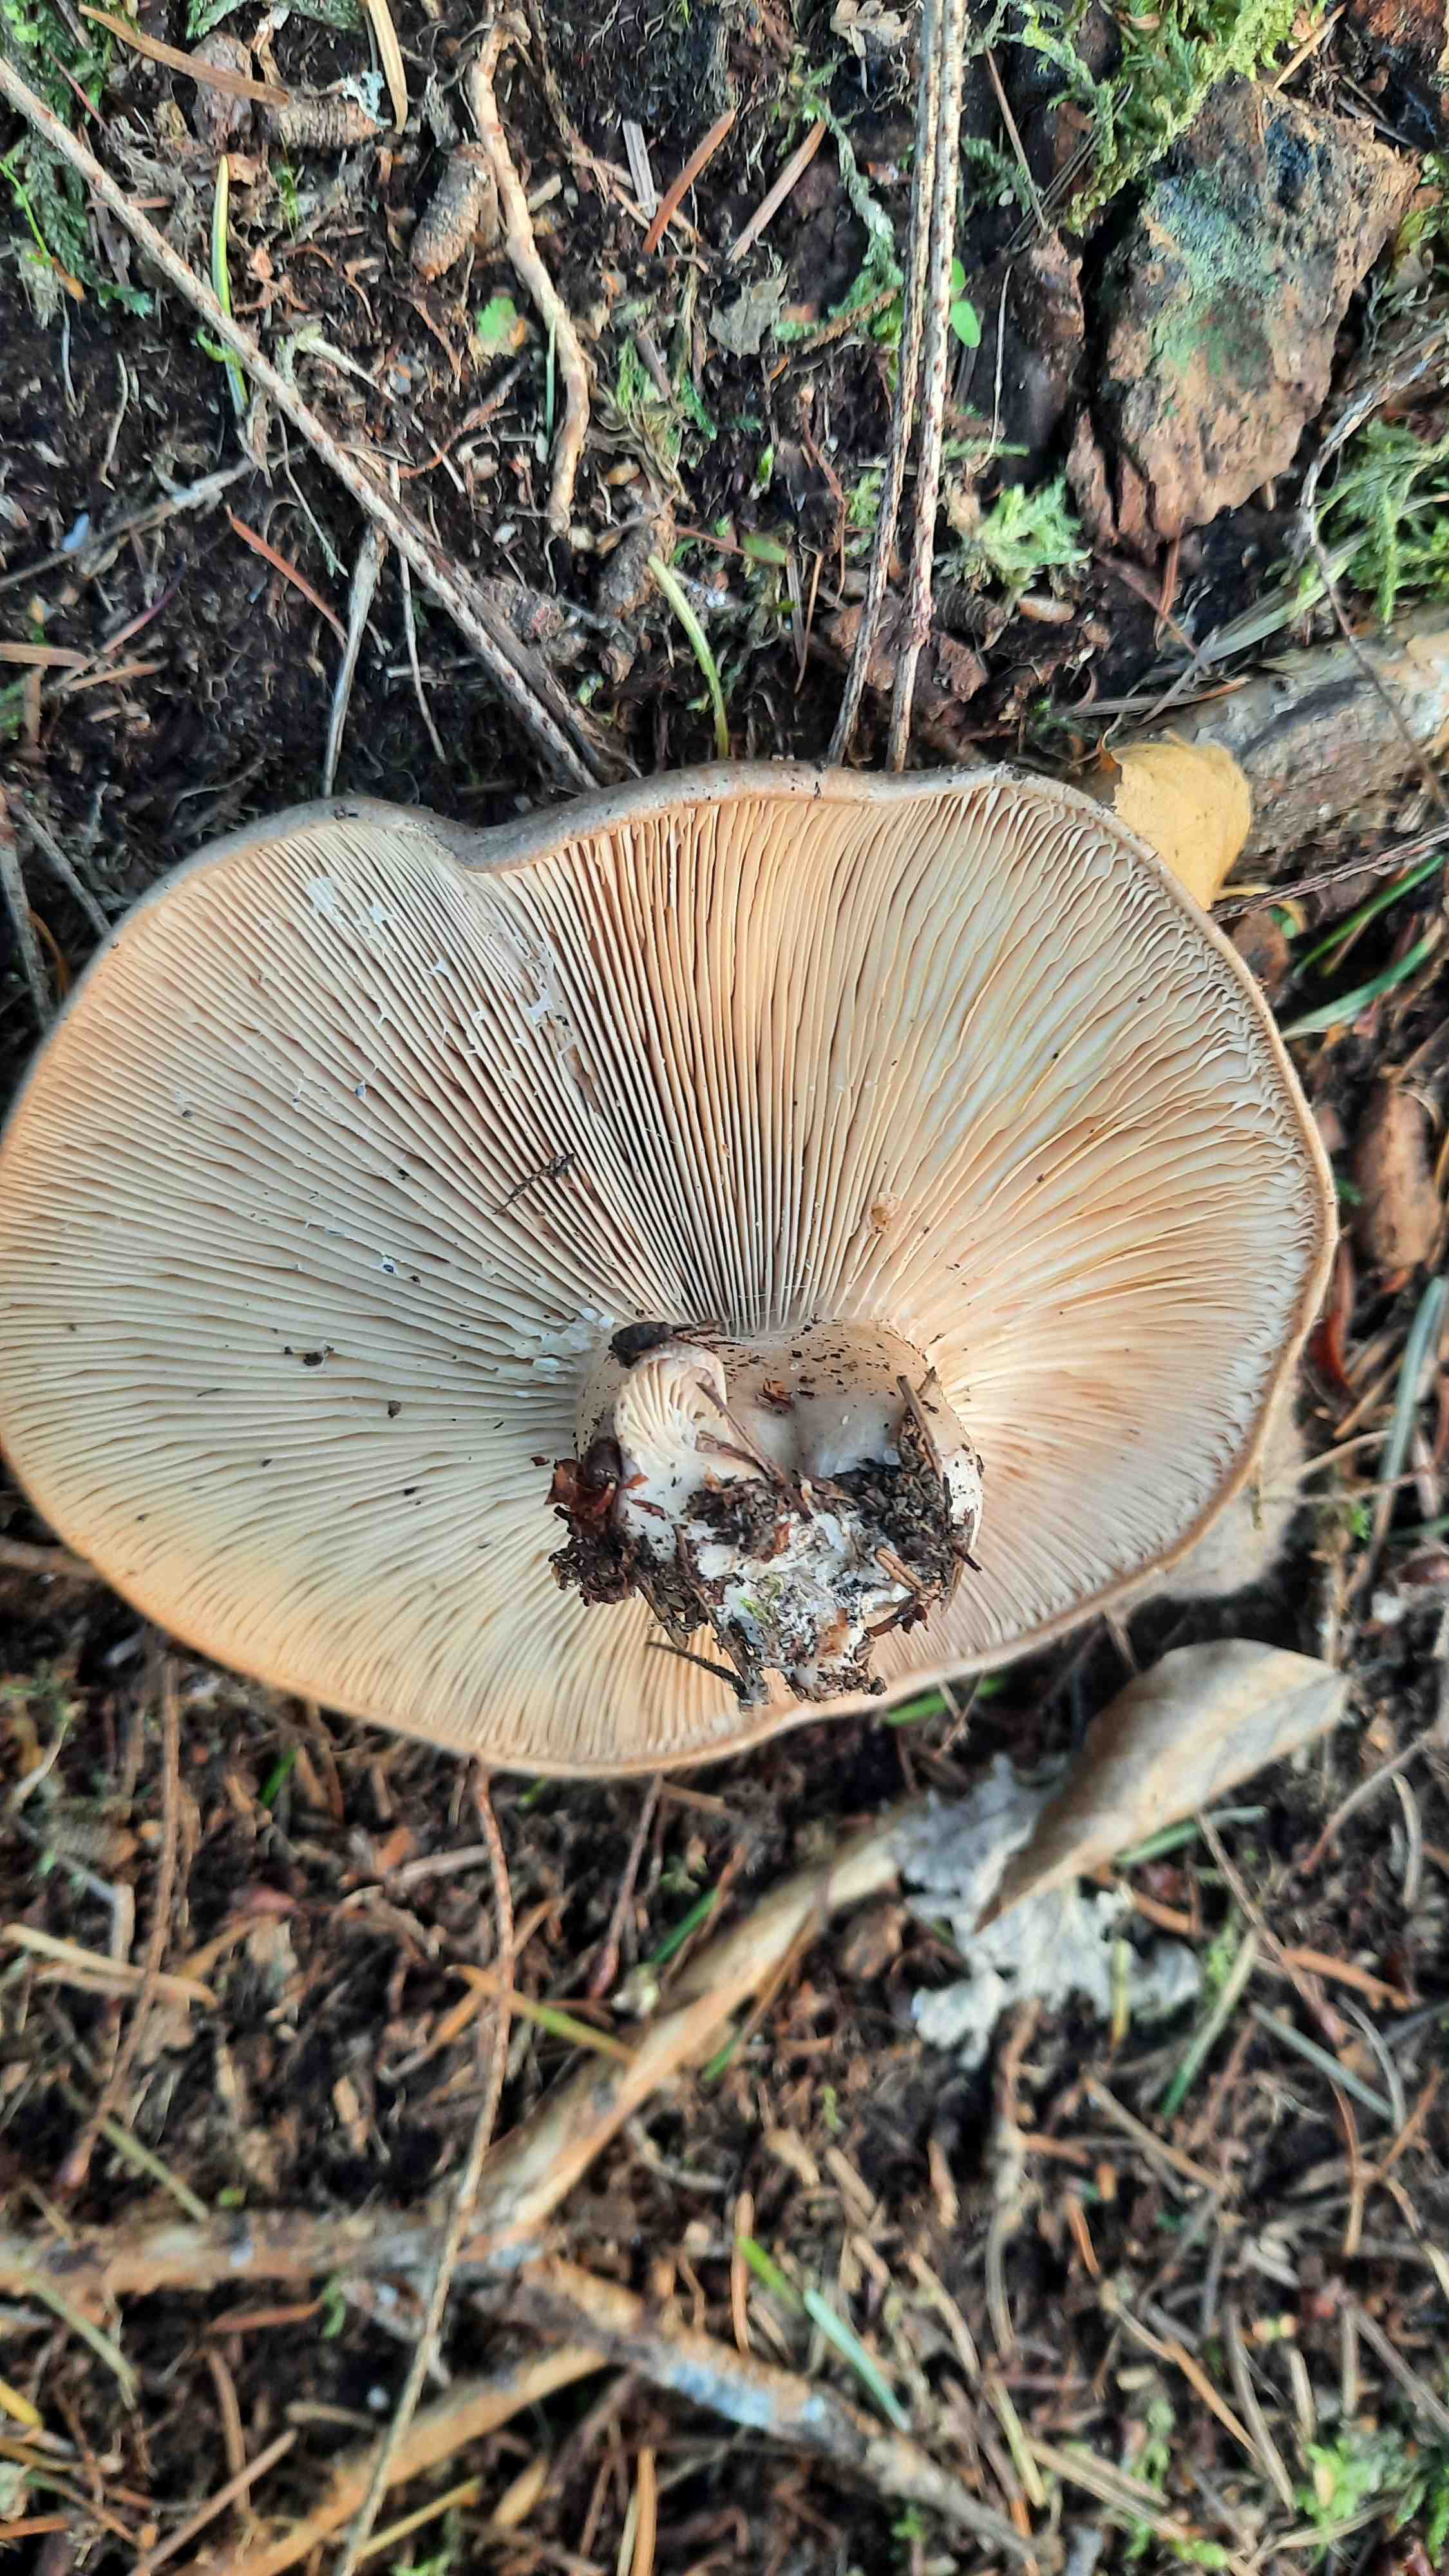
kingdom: Fungi
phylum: Basidiomycota
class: Agaricomycetes
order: Russulales
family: Russulaceae
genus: Lactarius
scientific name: Lactarius
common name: mælkehat
